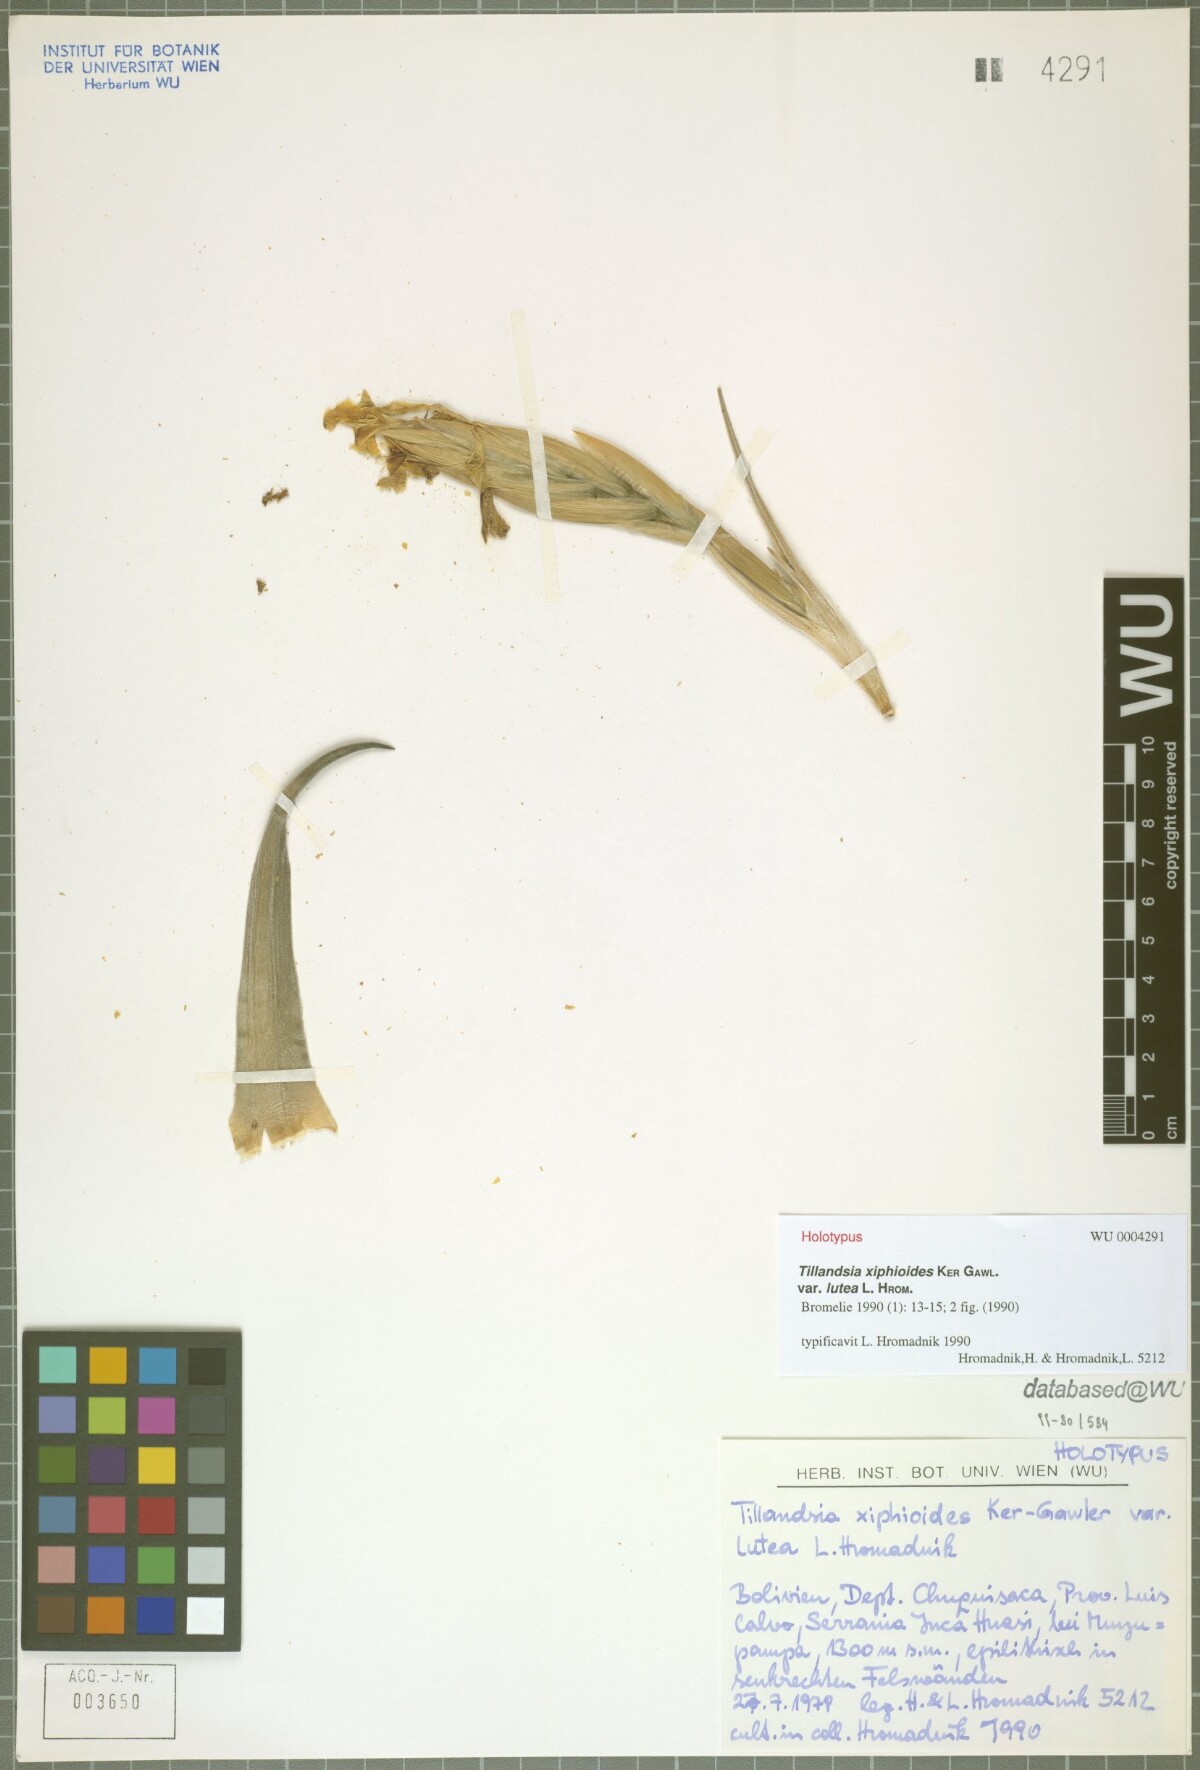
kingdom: Plantae
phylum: Tracheophyta
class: Liliopsida
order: Poales
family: Bromeliaceae
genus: Tillandsia
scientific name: Tillandsia xiphioides
